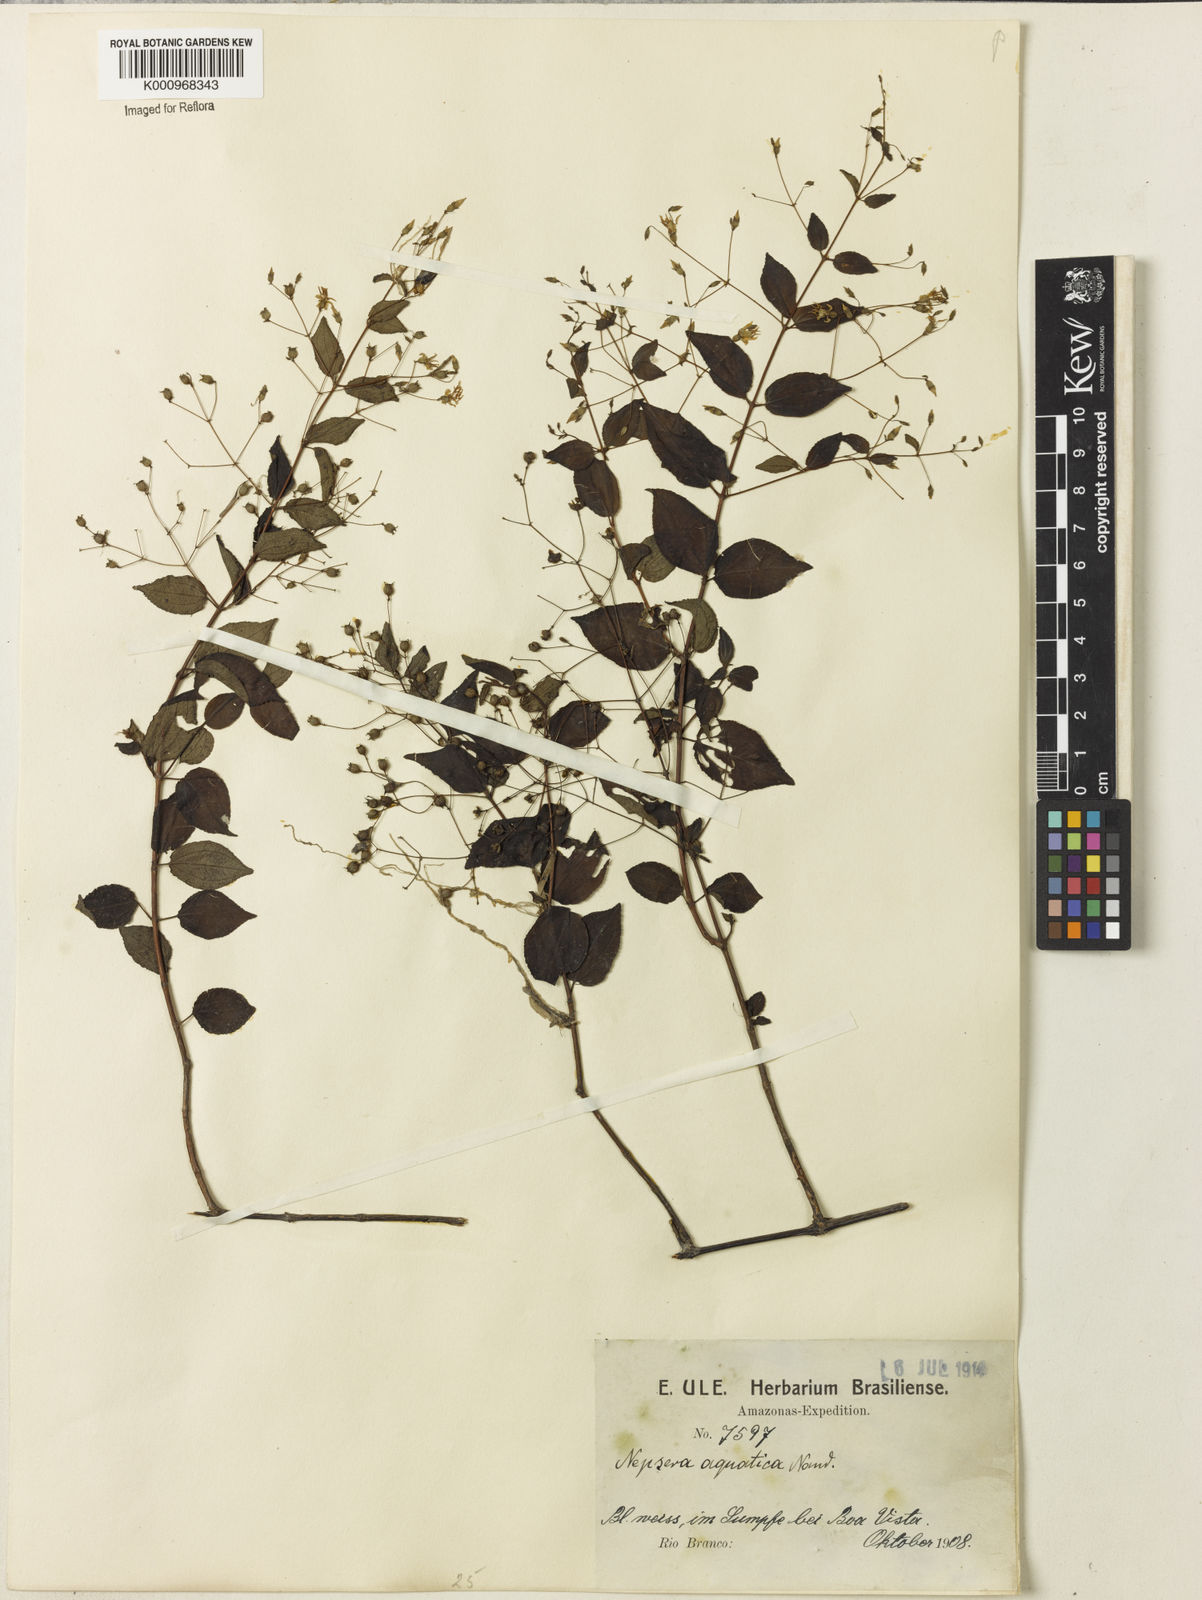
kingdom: Plantae
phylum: Tracheophyta
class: Magnoliopsida
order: Myrtales
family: Melastomataceae
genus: Nepsera
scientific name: Nepsera aquatica
